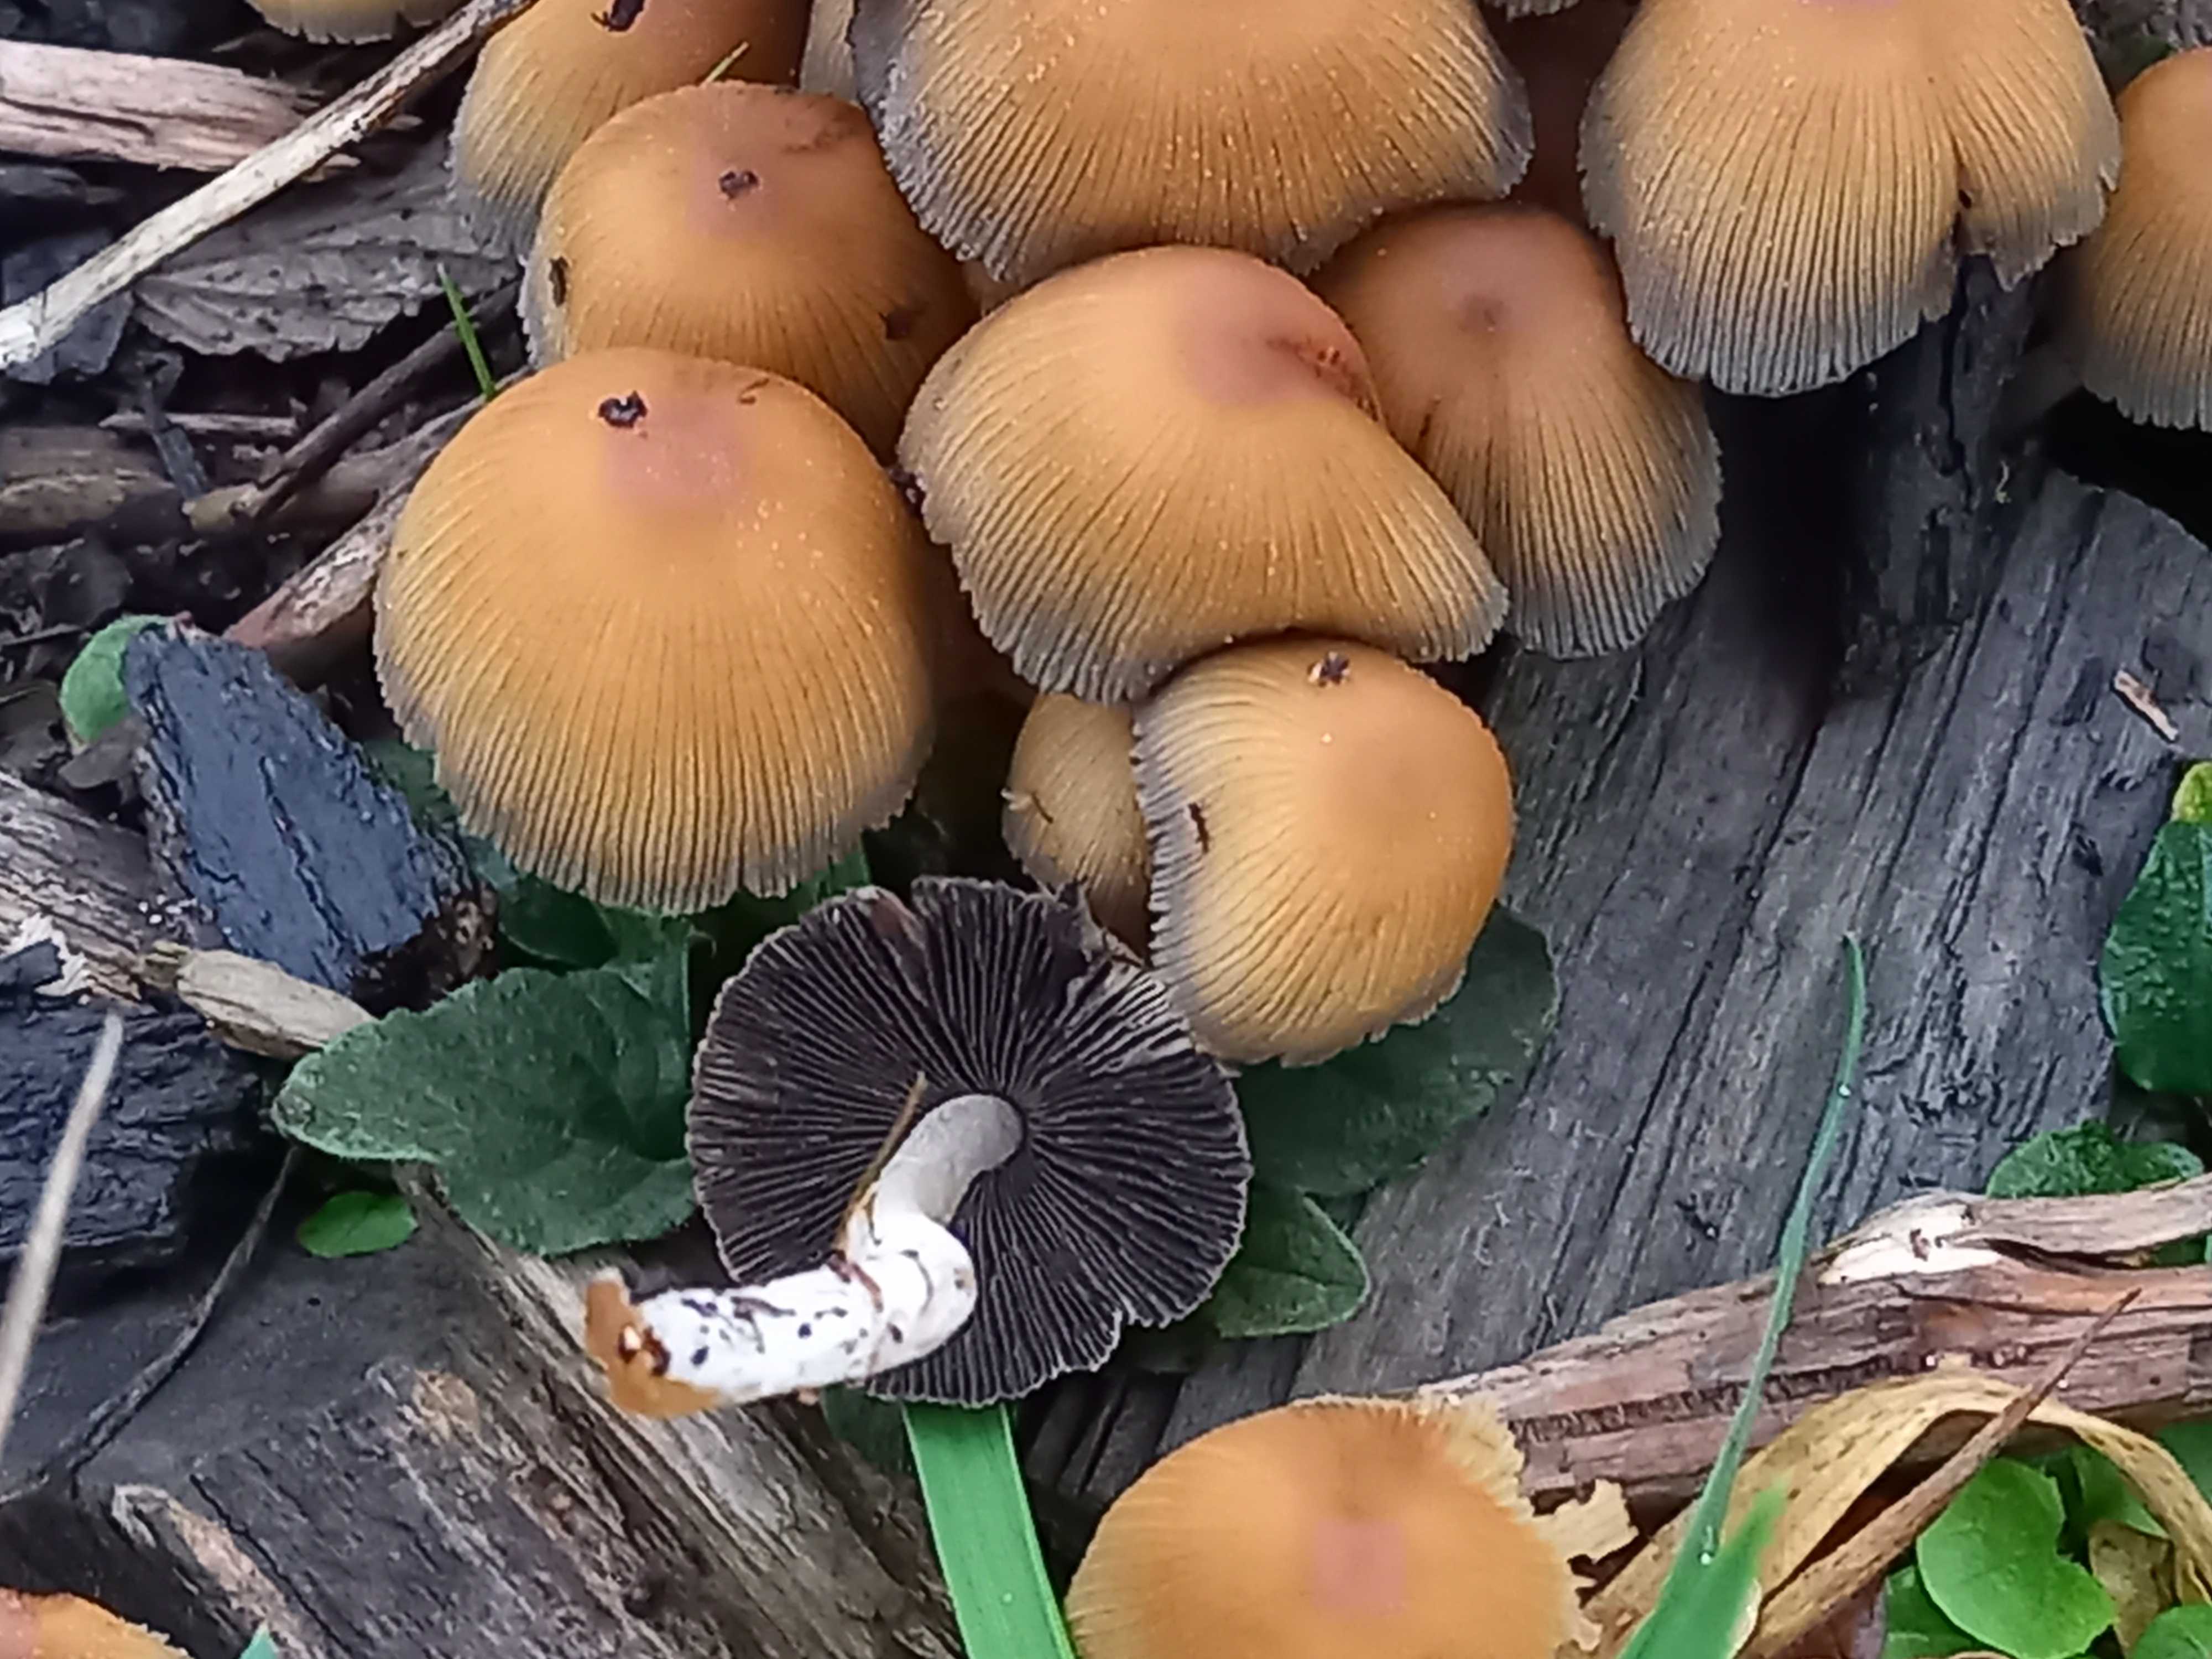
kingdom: Fungi
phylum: Basidiomycota
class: Agaricomycetes
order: Agaricales
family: Psathyrellaceae
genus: Coprinellus
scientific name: Coprinellus micaceus
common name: glimmer-blækhat
